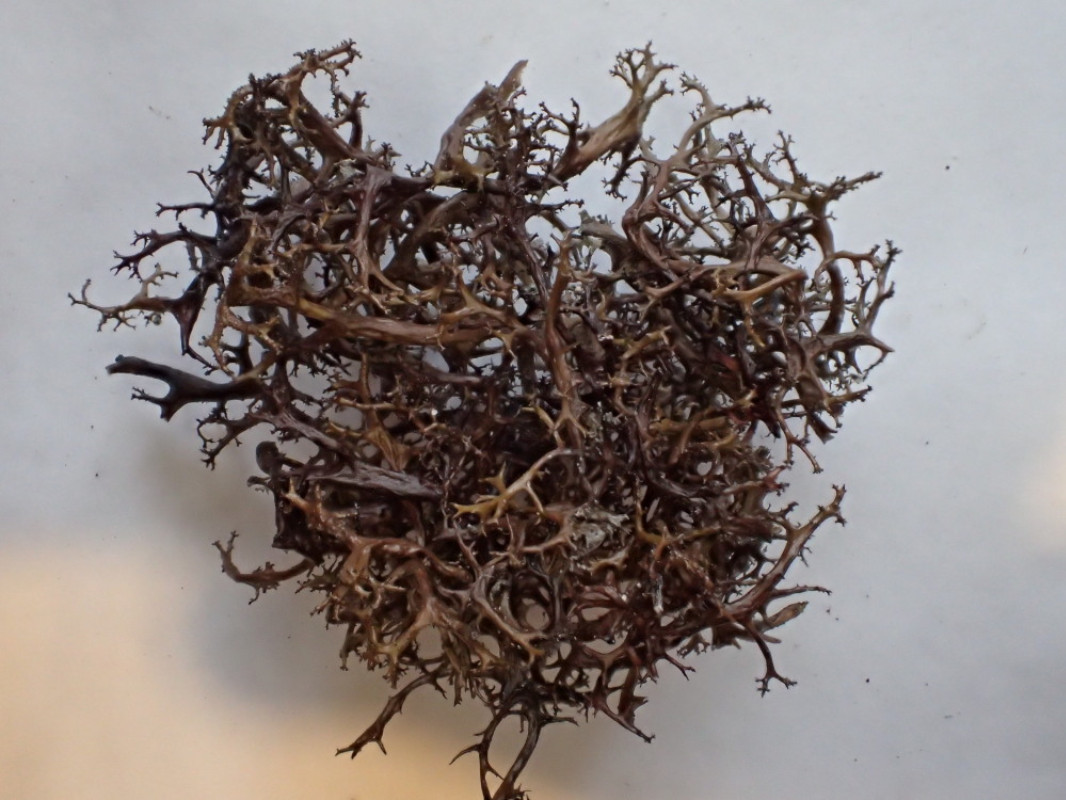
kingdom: Fungi
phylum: Ascomycota
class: Lecanoromycetes
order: Lecanorales
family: Parmeliaceae
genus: Cetraria
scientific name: Cetraria aculeata
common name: grubet tjørnelav
